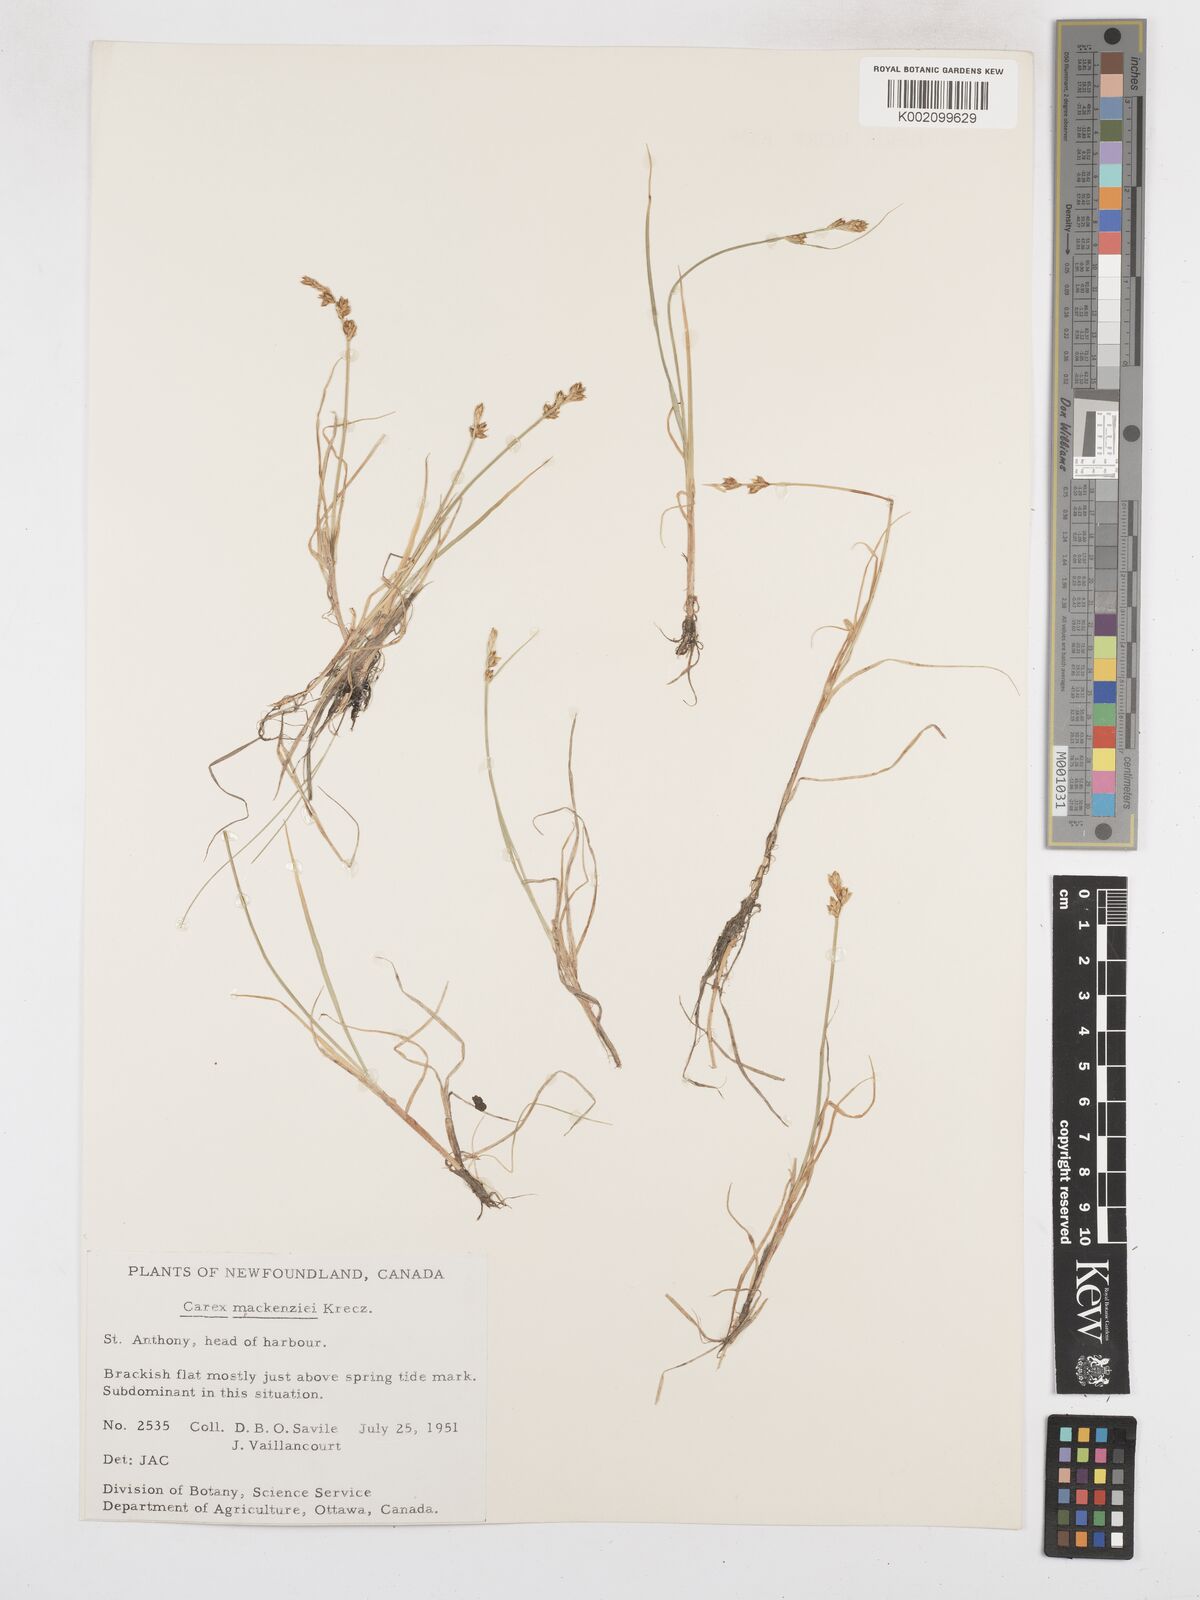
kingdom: Plantae
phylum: Tracheophyta
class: Liliopsida
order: Poales
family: Cyperaceae
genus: Carex
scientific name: Carex mackenziei
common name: Mackenzie's sedge
